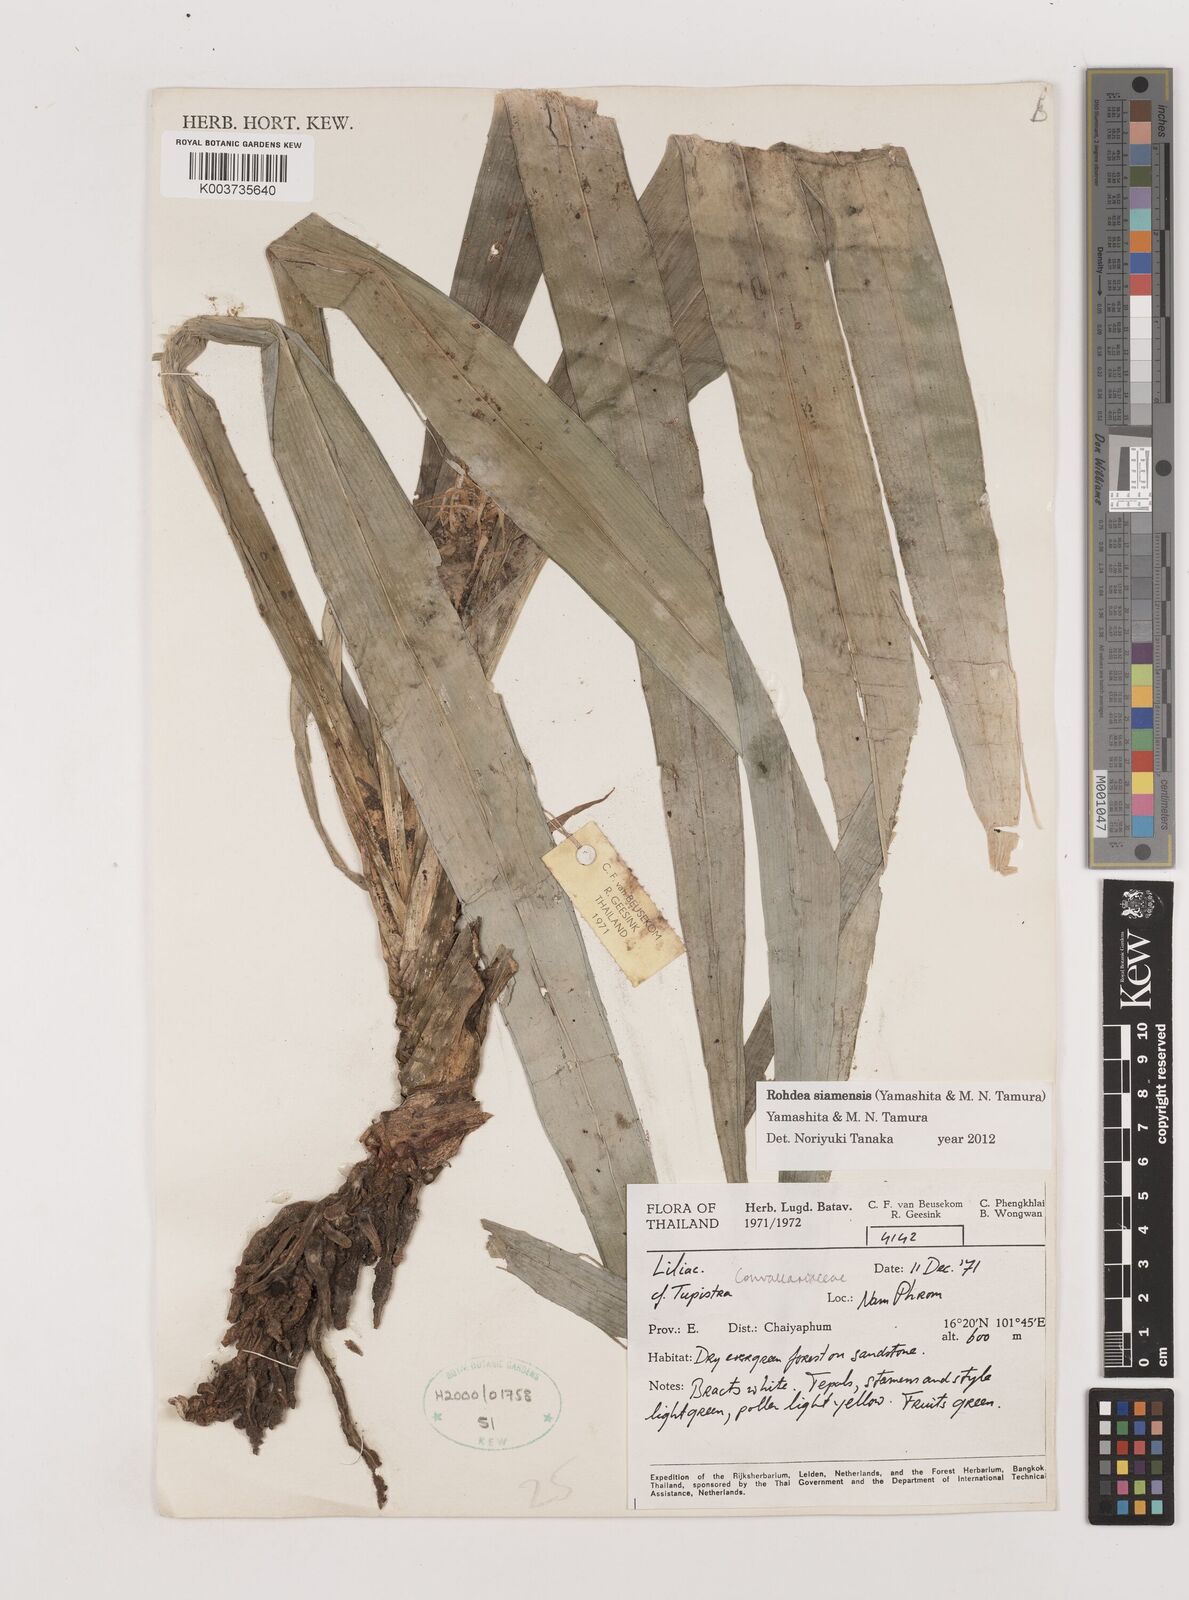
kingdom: Plantae
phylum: Tracheophyta
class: Liliopsida
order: Asparagales
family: Asparagaceae
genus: Rohdea
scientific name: Rohdea siamensis
